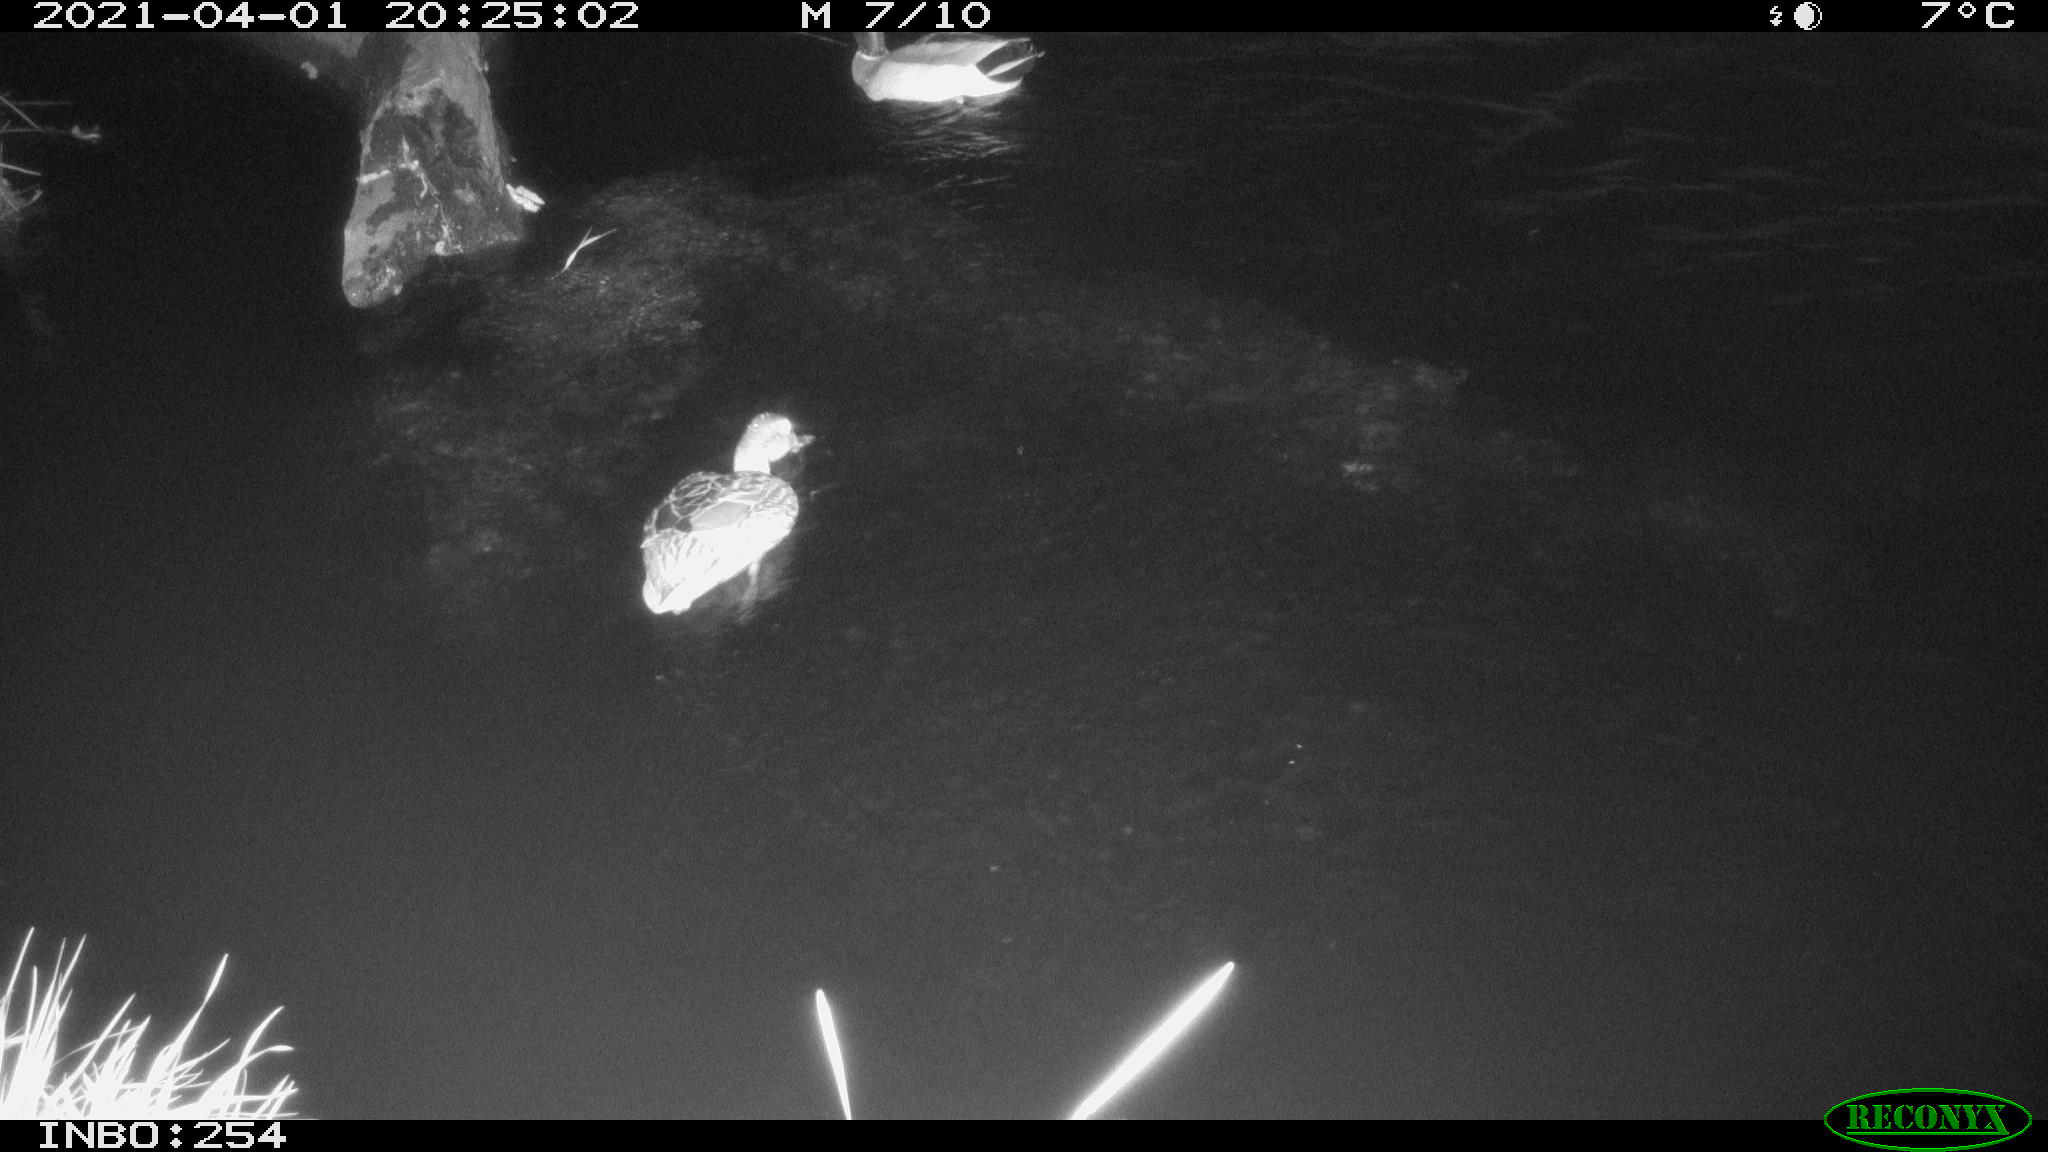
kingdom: Animalia
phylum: Chordata
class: Aves
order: Anseriformes
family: Anatidae
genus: Anas
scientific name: Anas platyrhynchos
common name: Mallard
